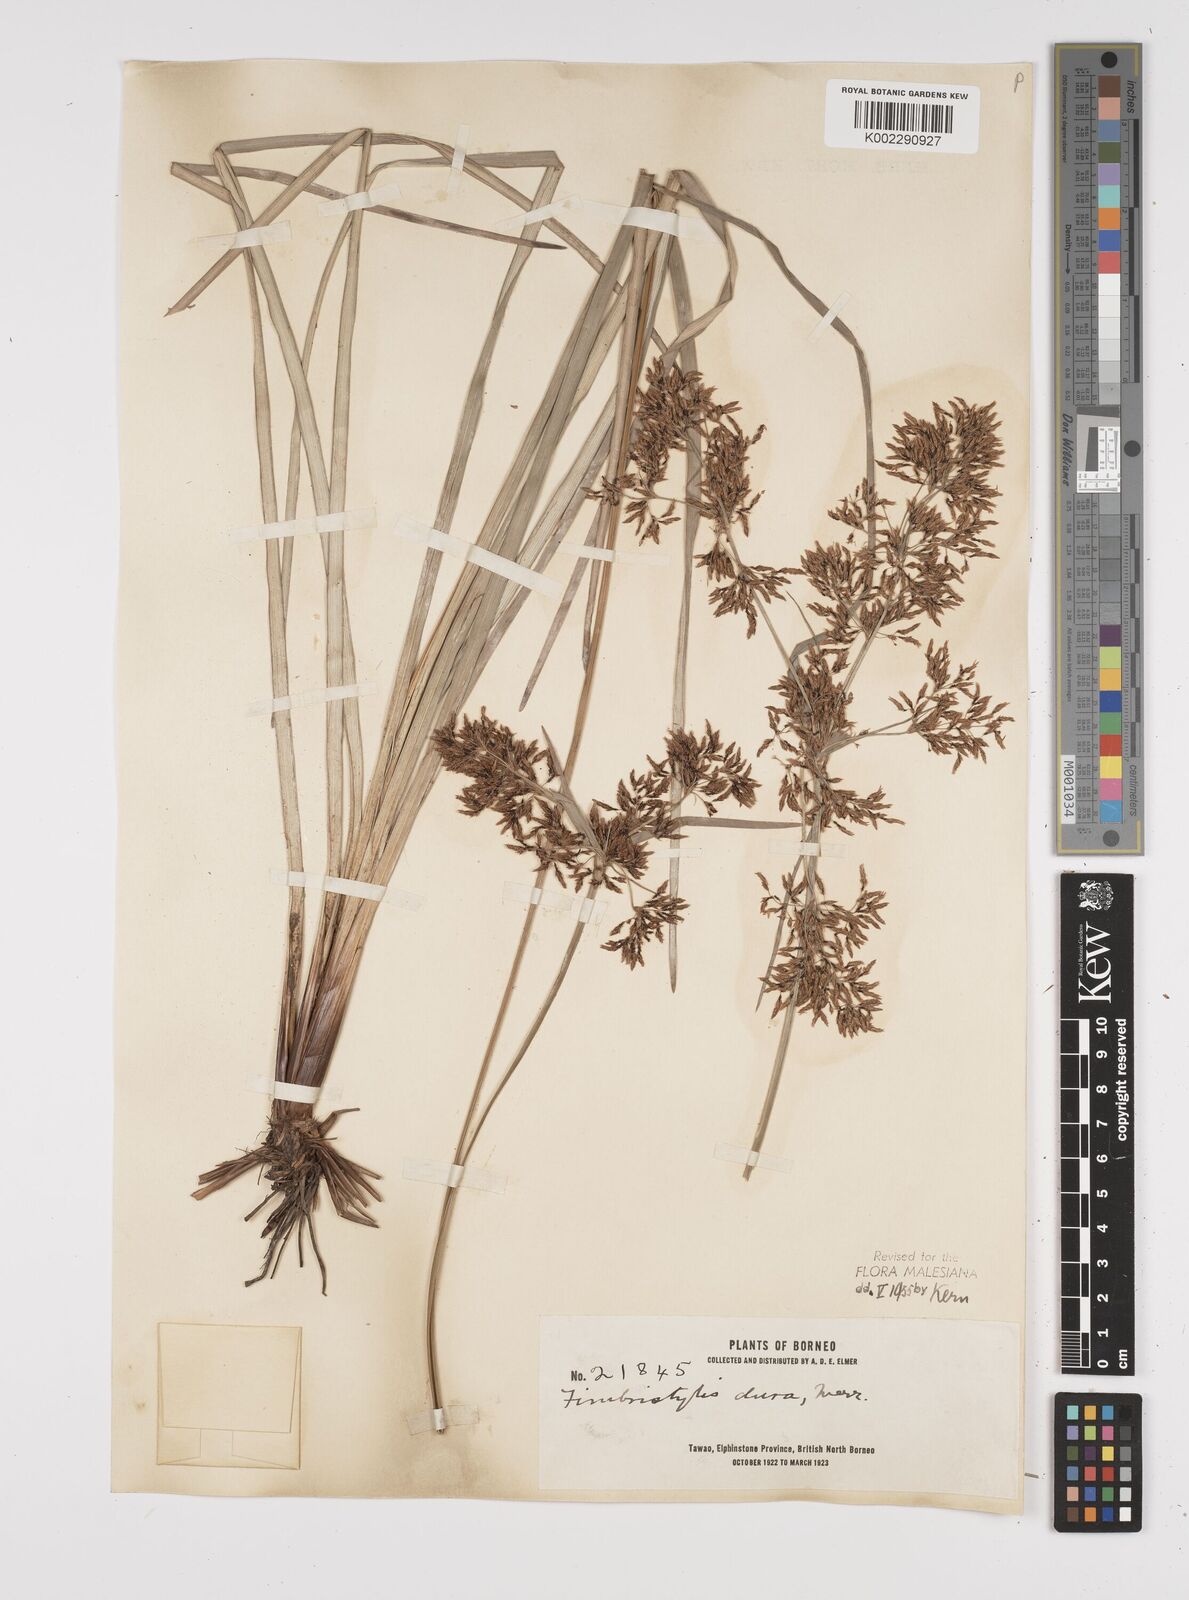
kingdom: Plantae
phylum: Tracheophyta
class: Liliopsida
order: Poales
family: Cyperaceae
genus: Fimbristylis
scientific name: Fimbristylis dura
